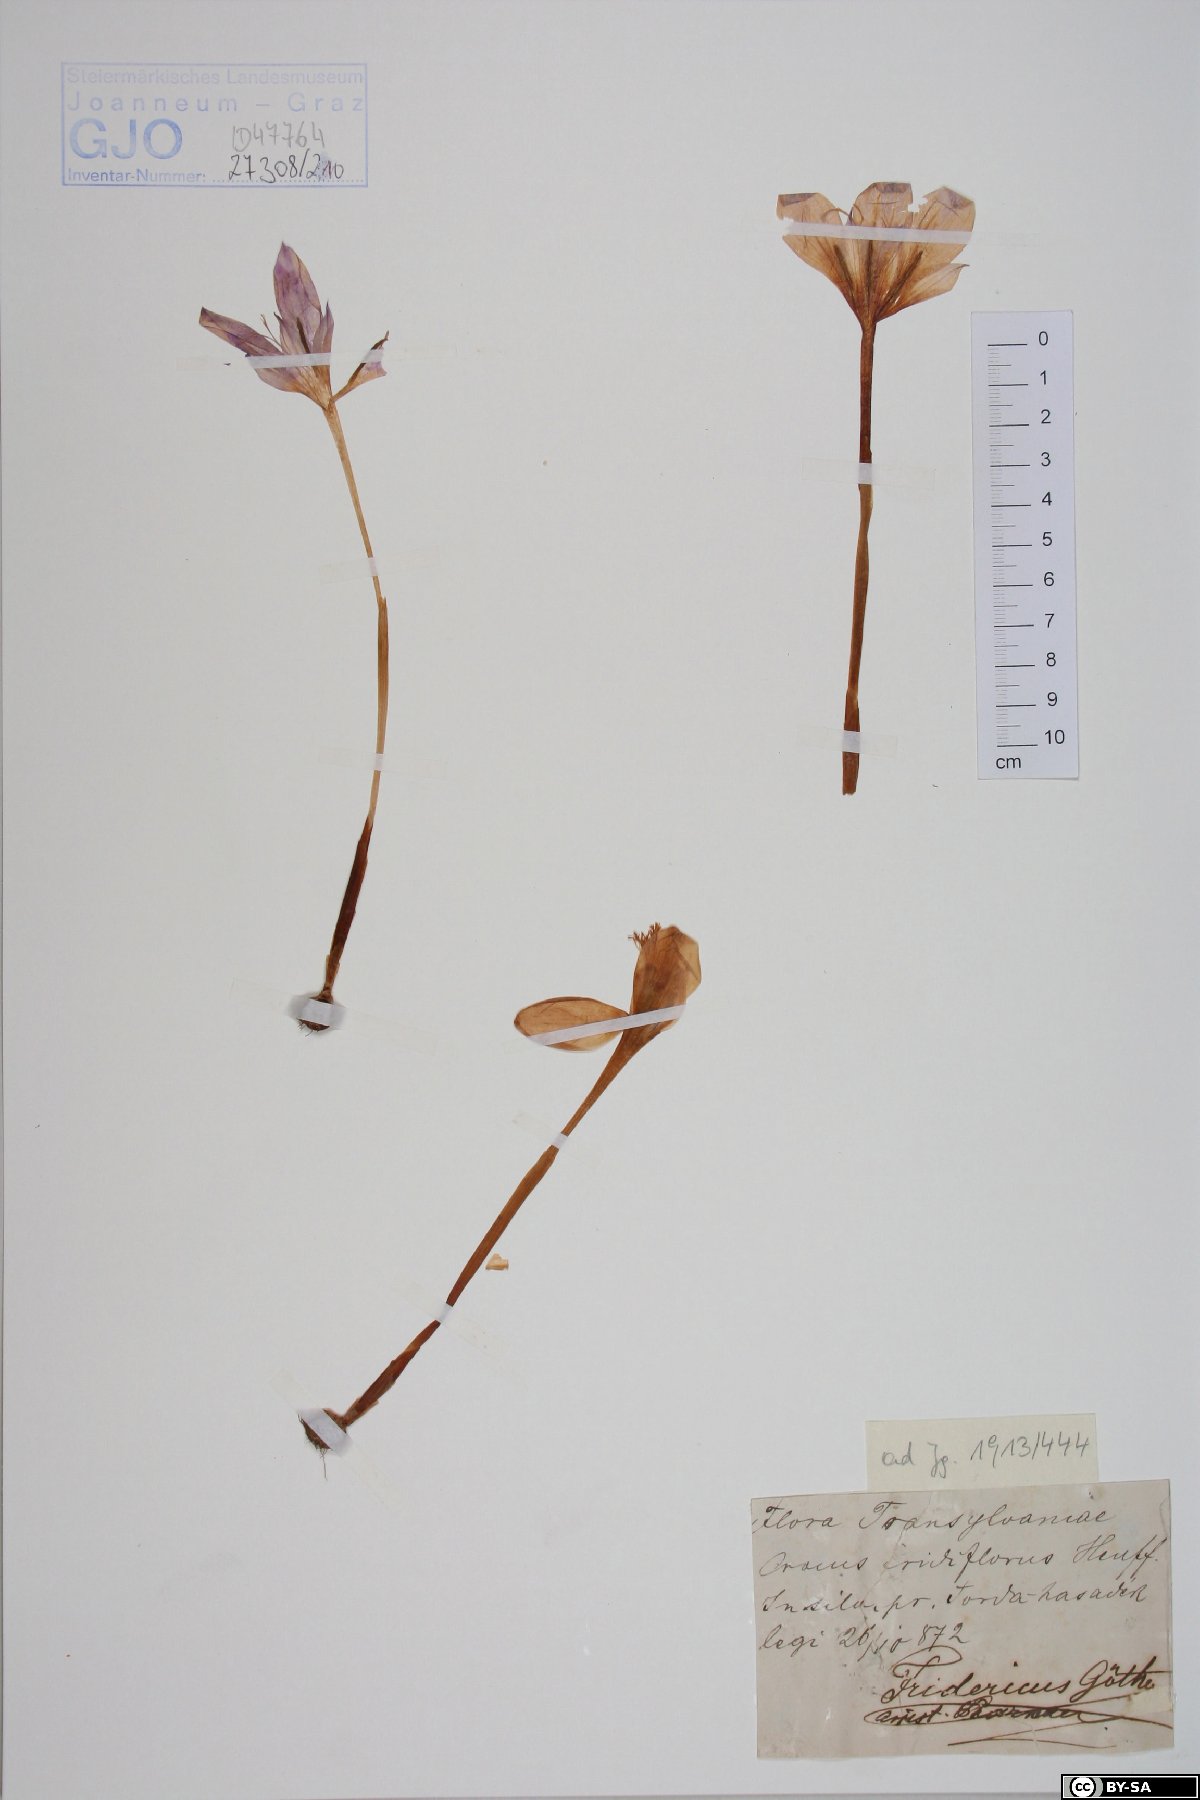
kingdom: Plantae
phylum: Tracheophyta
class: Liliopsida
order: Asparagales
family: Iridaceae
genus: Crocus
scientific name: Crocus banaticus
